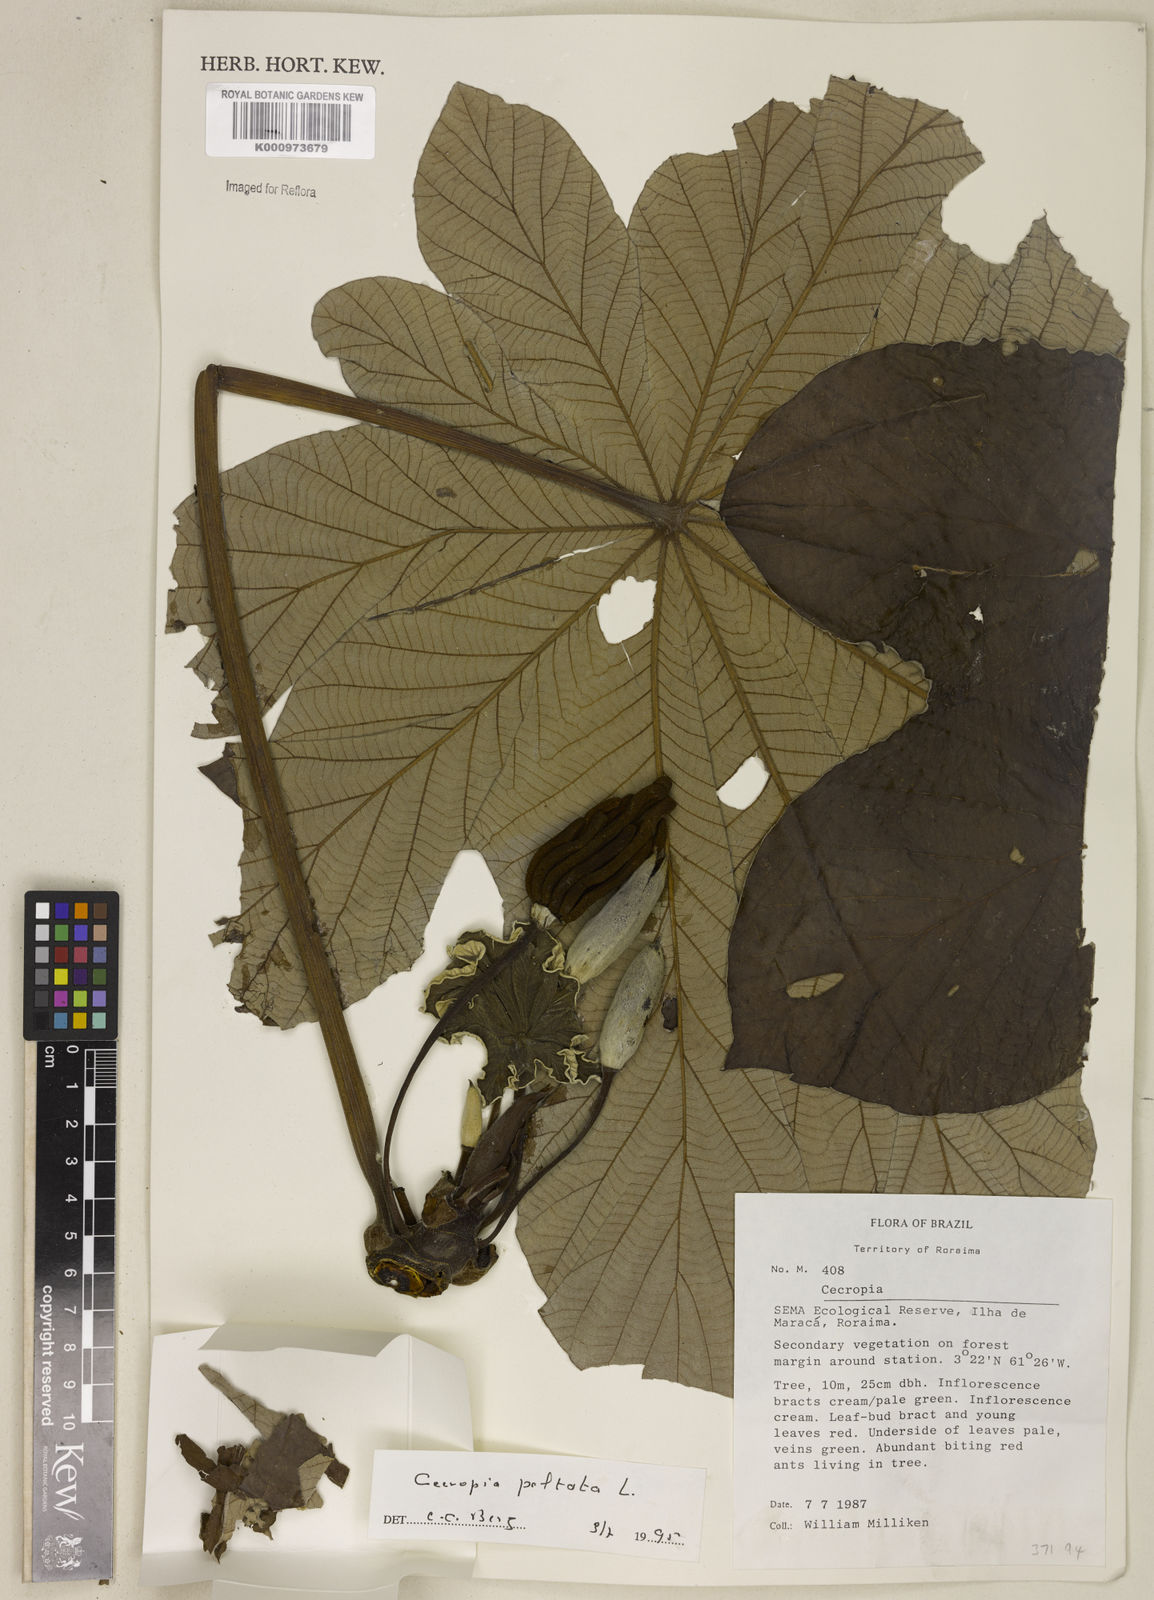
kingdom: Plantae
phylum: Tracheophyta
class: Magnoliopsida
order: Rosales
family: Urticaceae
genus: Cecropia
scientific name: Cecropia peltata
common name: Trumpet-tree
